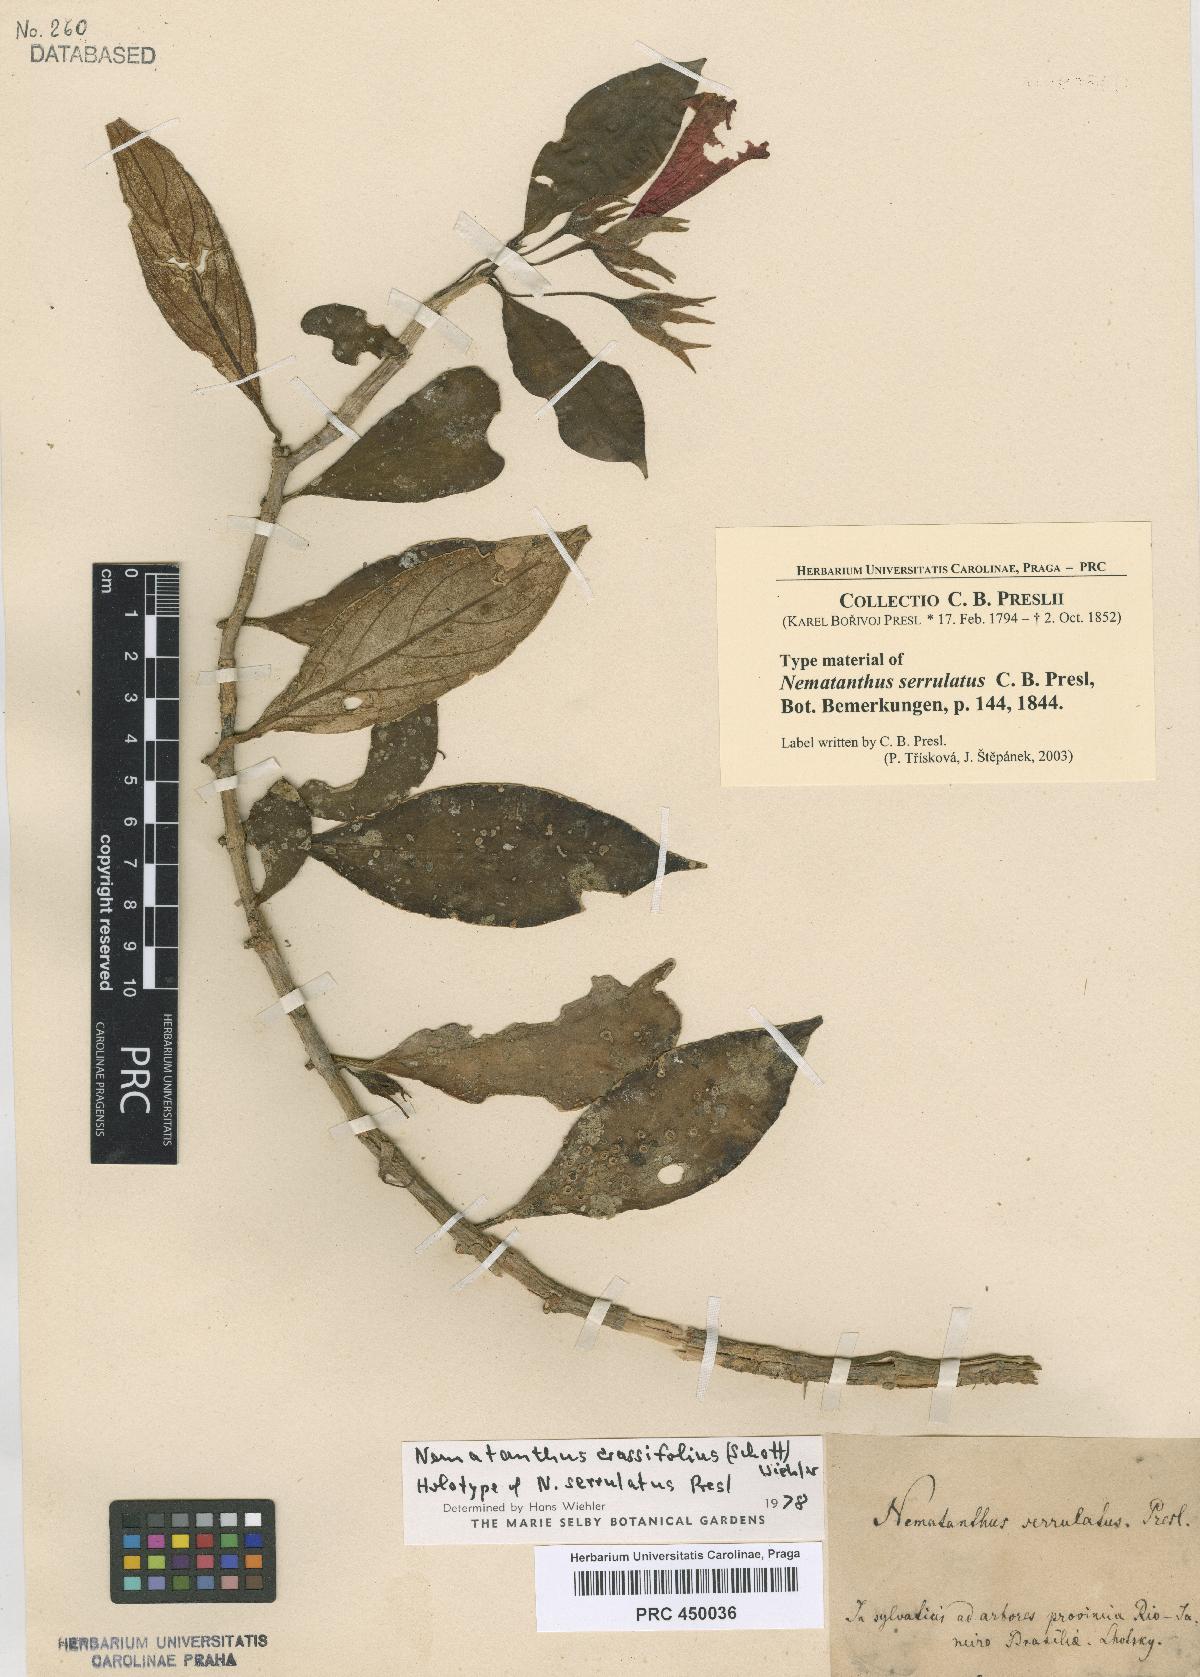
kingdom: Plantae
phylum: Tracheophyta
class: Magnoliopsida
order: Lamiales
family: Gesneriaceae
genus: Nematanthus
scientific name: Nematanthus crassifolius
